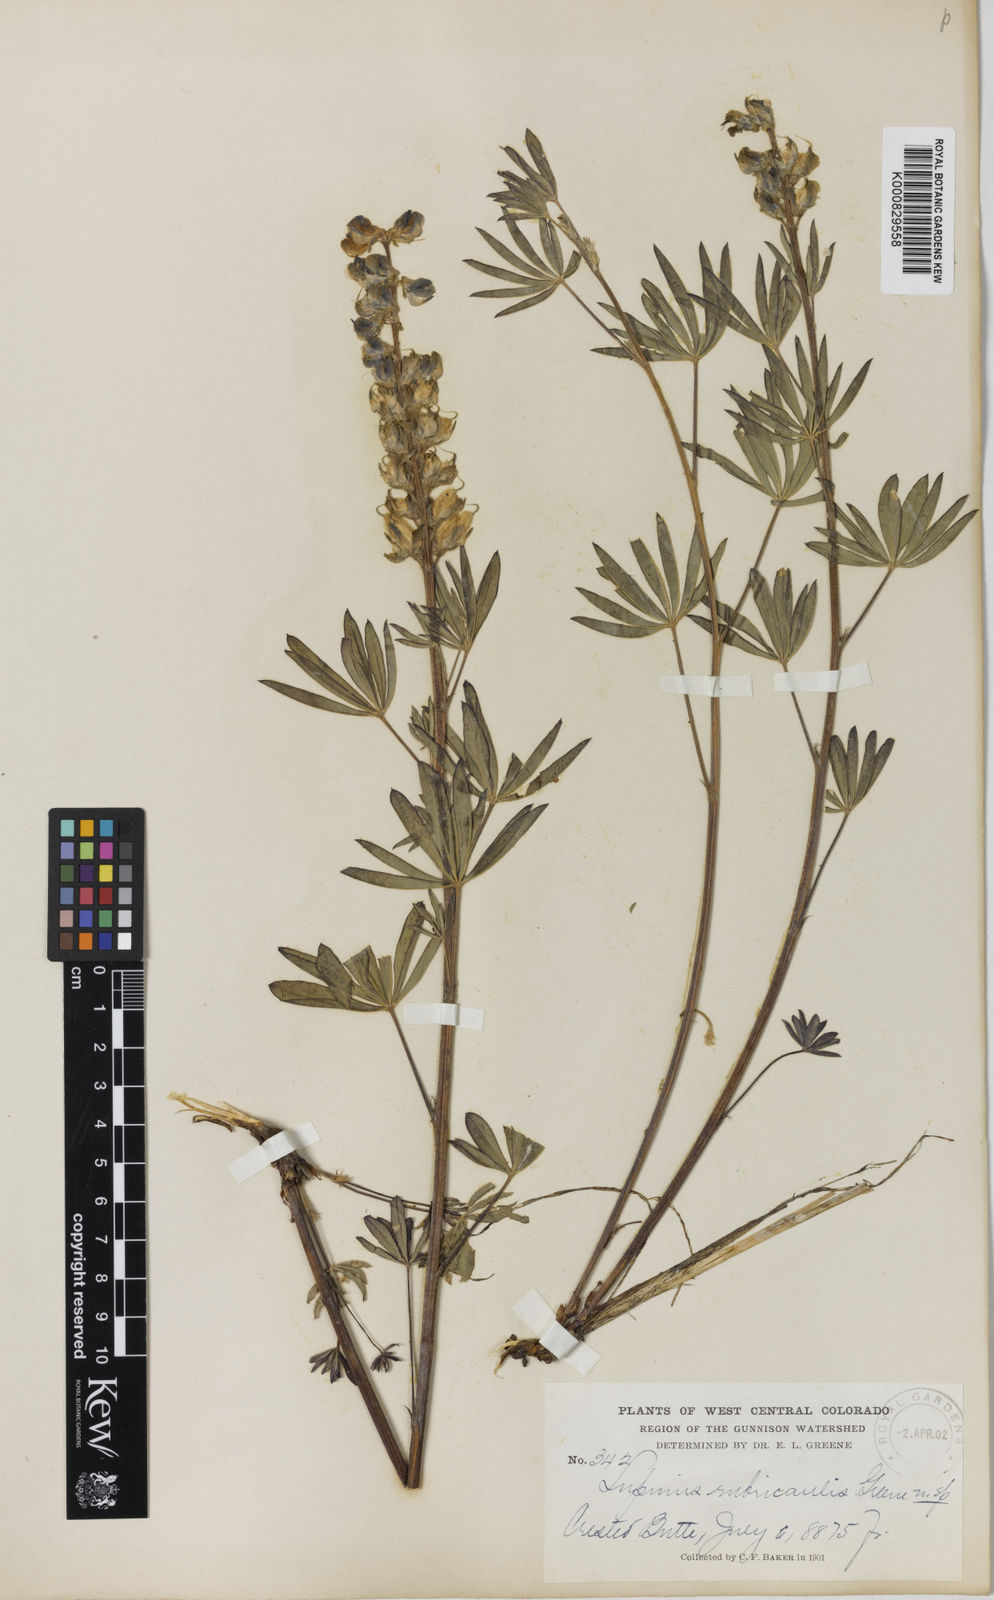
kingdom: Plantae
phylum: Tracheophyta
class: Magnoliopsida
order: Fabales
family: Fabaceae
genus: Lupinus
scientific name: Lupinus argenteus
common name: Silvery lupine
